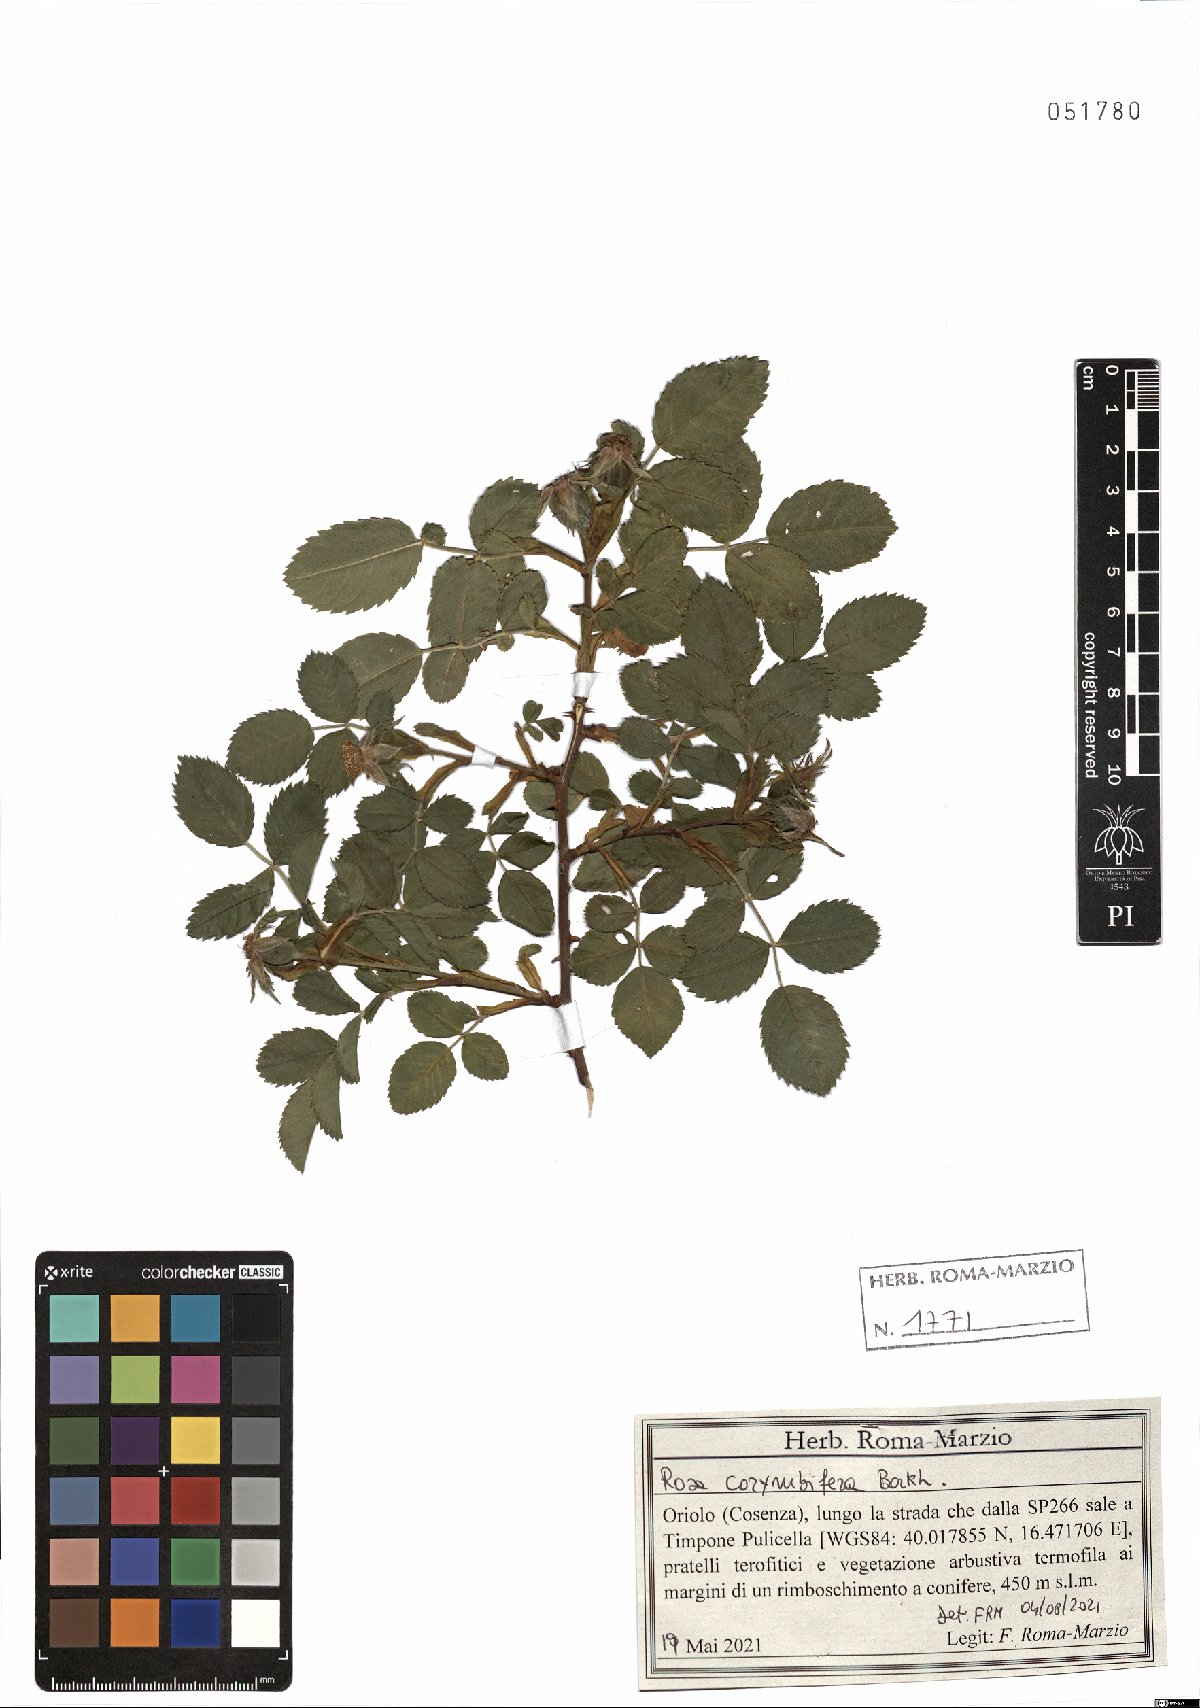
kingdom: Plantae
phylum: Tracheophyta
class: Magnoliopsida
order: Rosales
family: Rosaceae
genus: Rosa
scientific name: Rosa corymbifera
